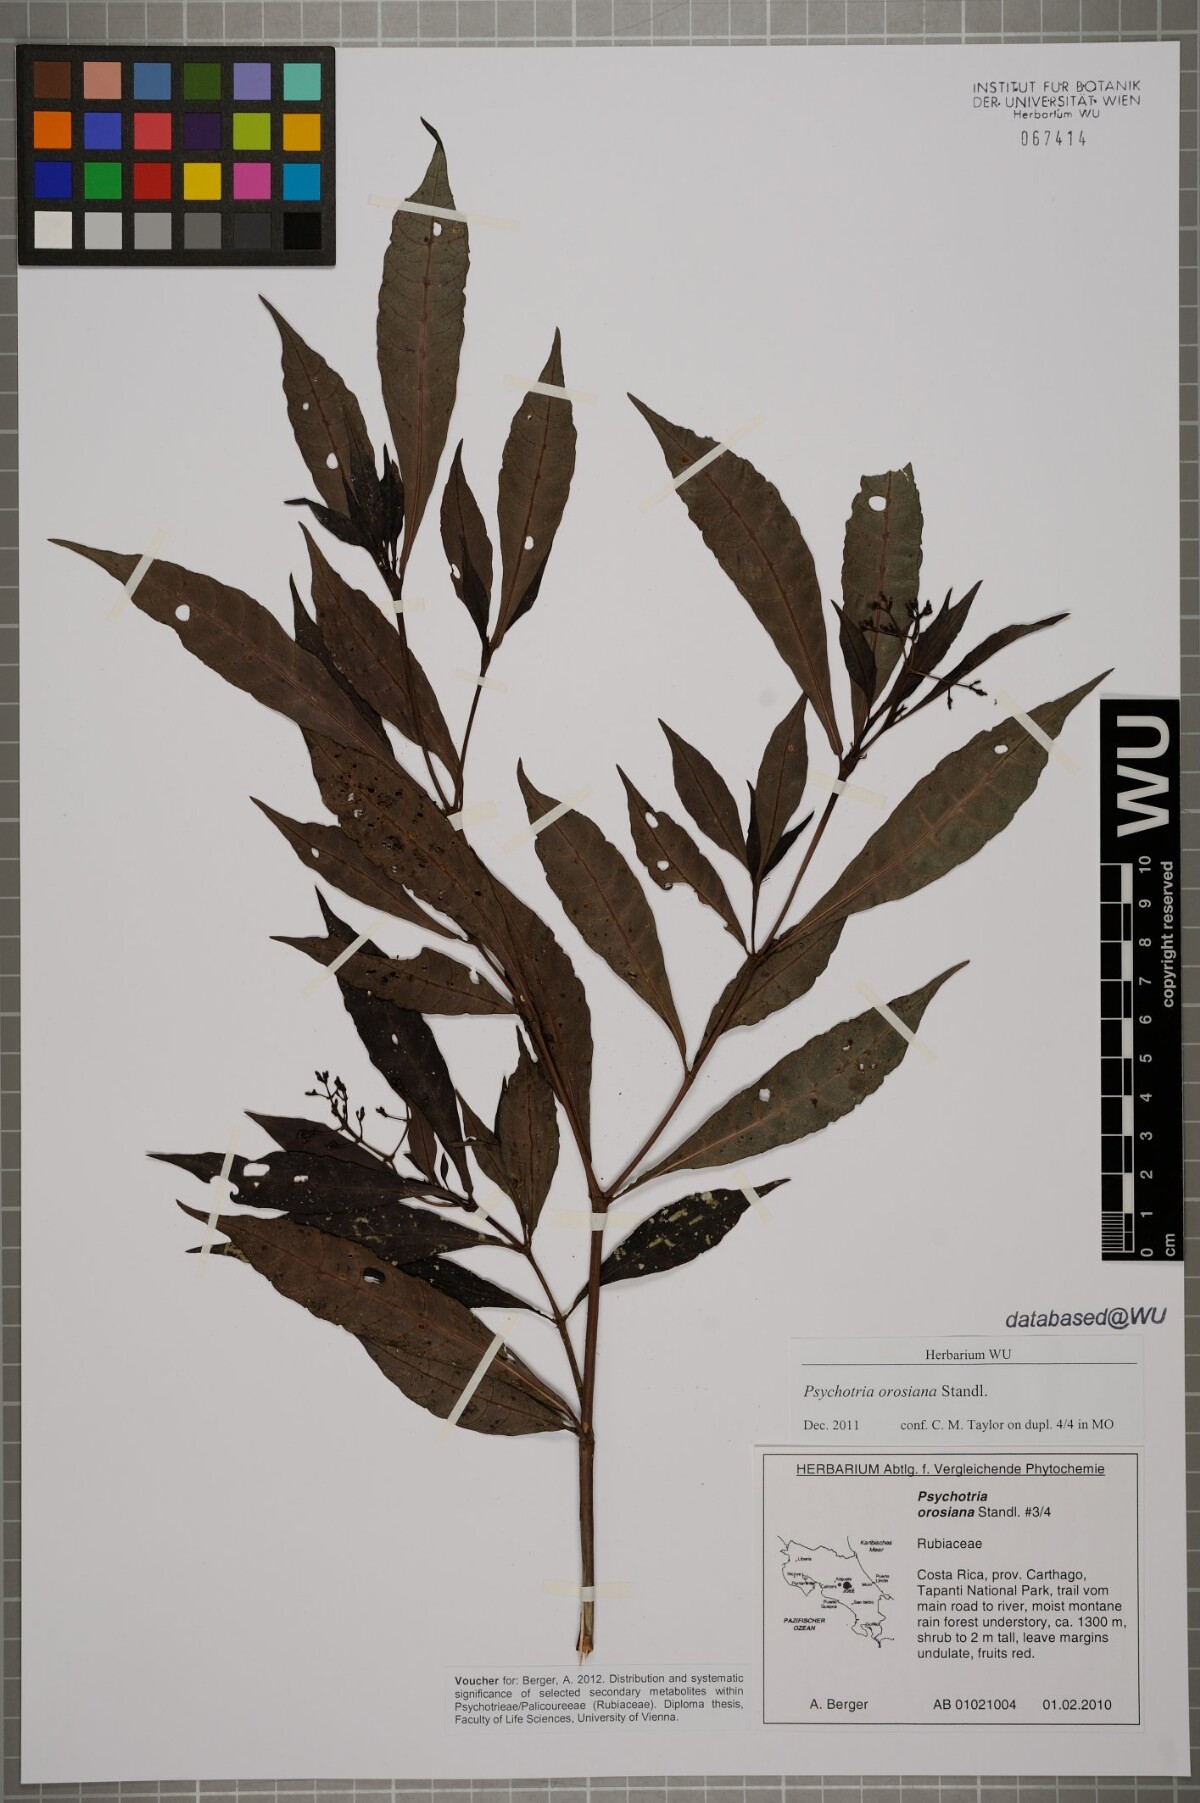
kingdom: Plantae
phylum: Tracheophyta
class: Magnoliopsida
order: Gentianales
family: Rubiaceae
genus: Psychotria
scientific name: Psychotria orosiana
